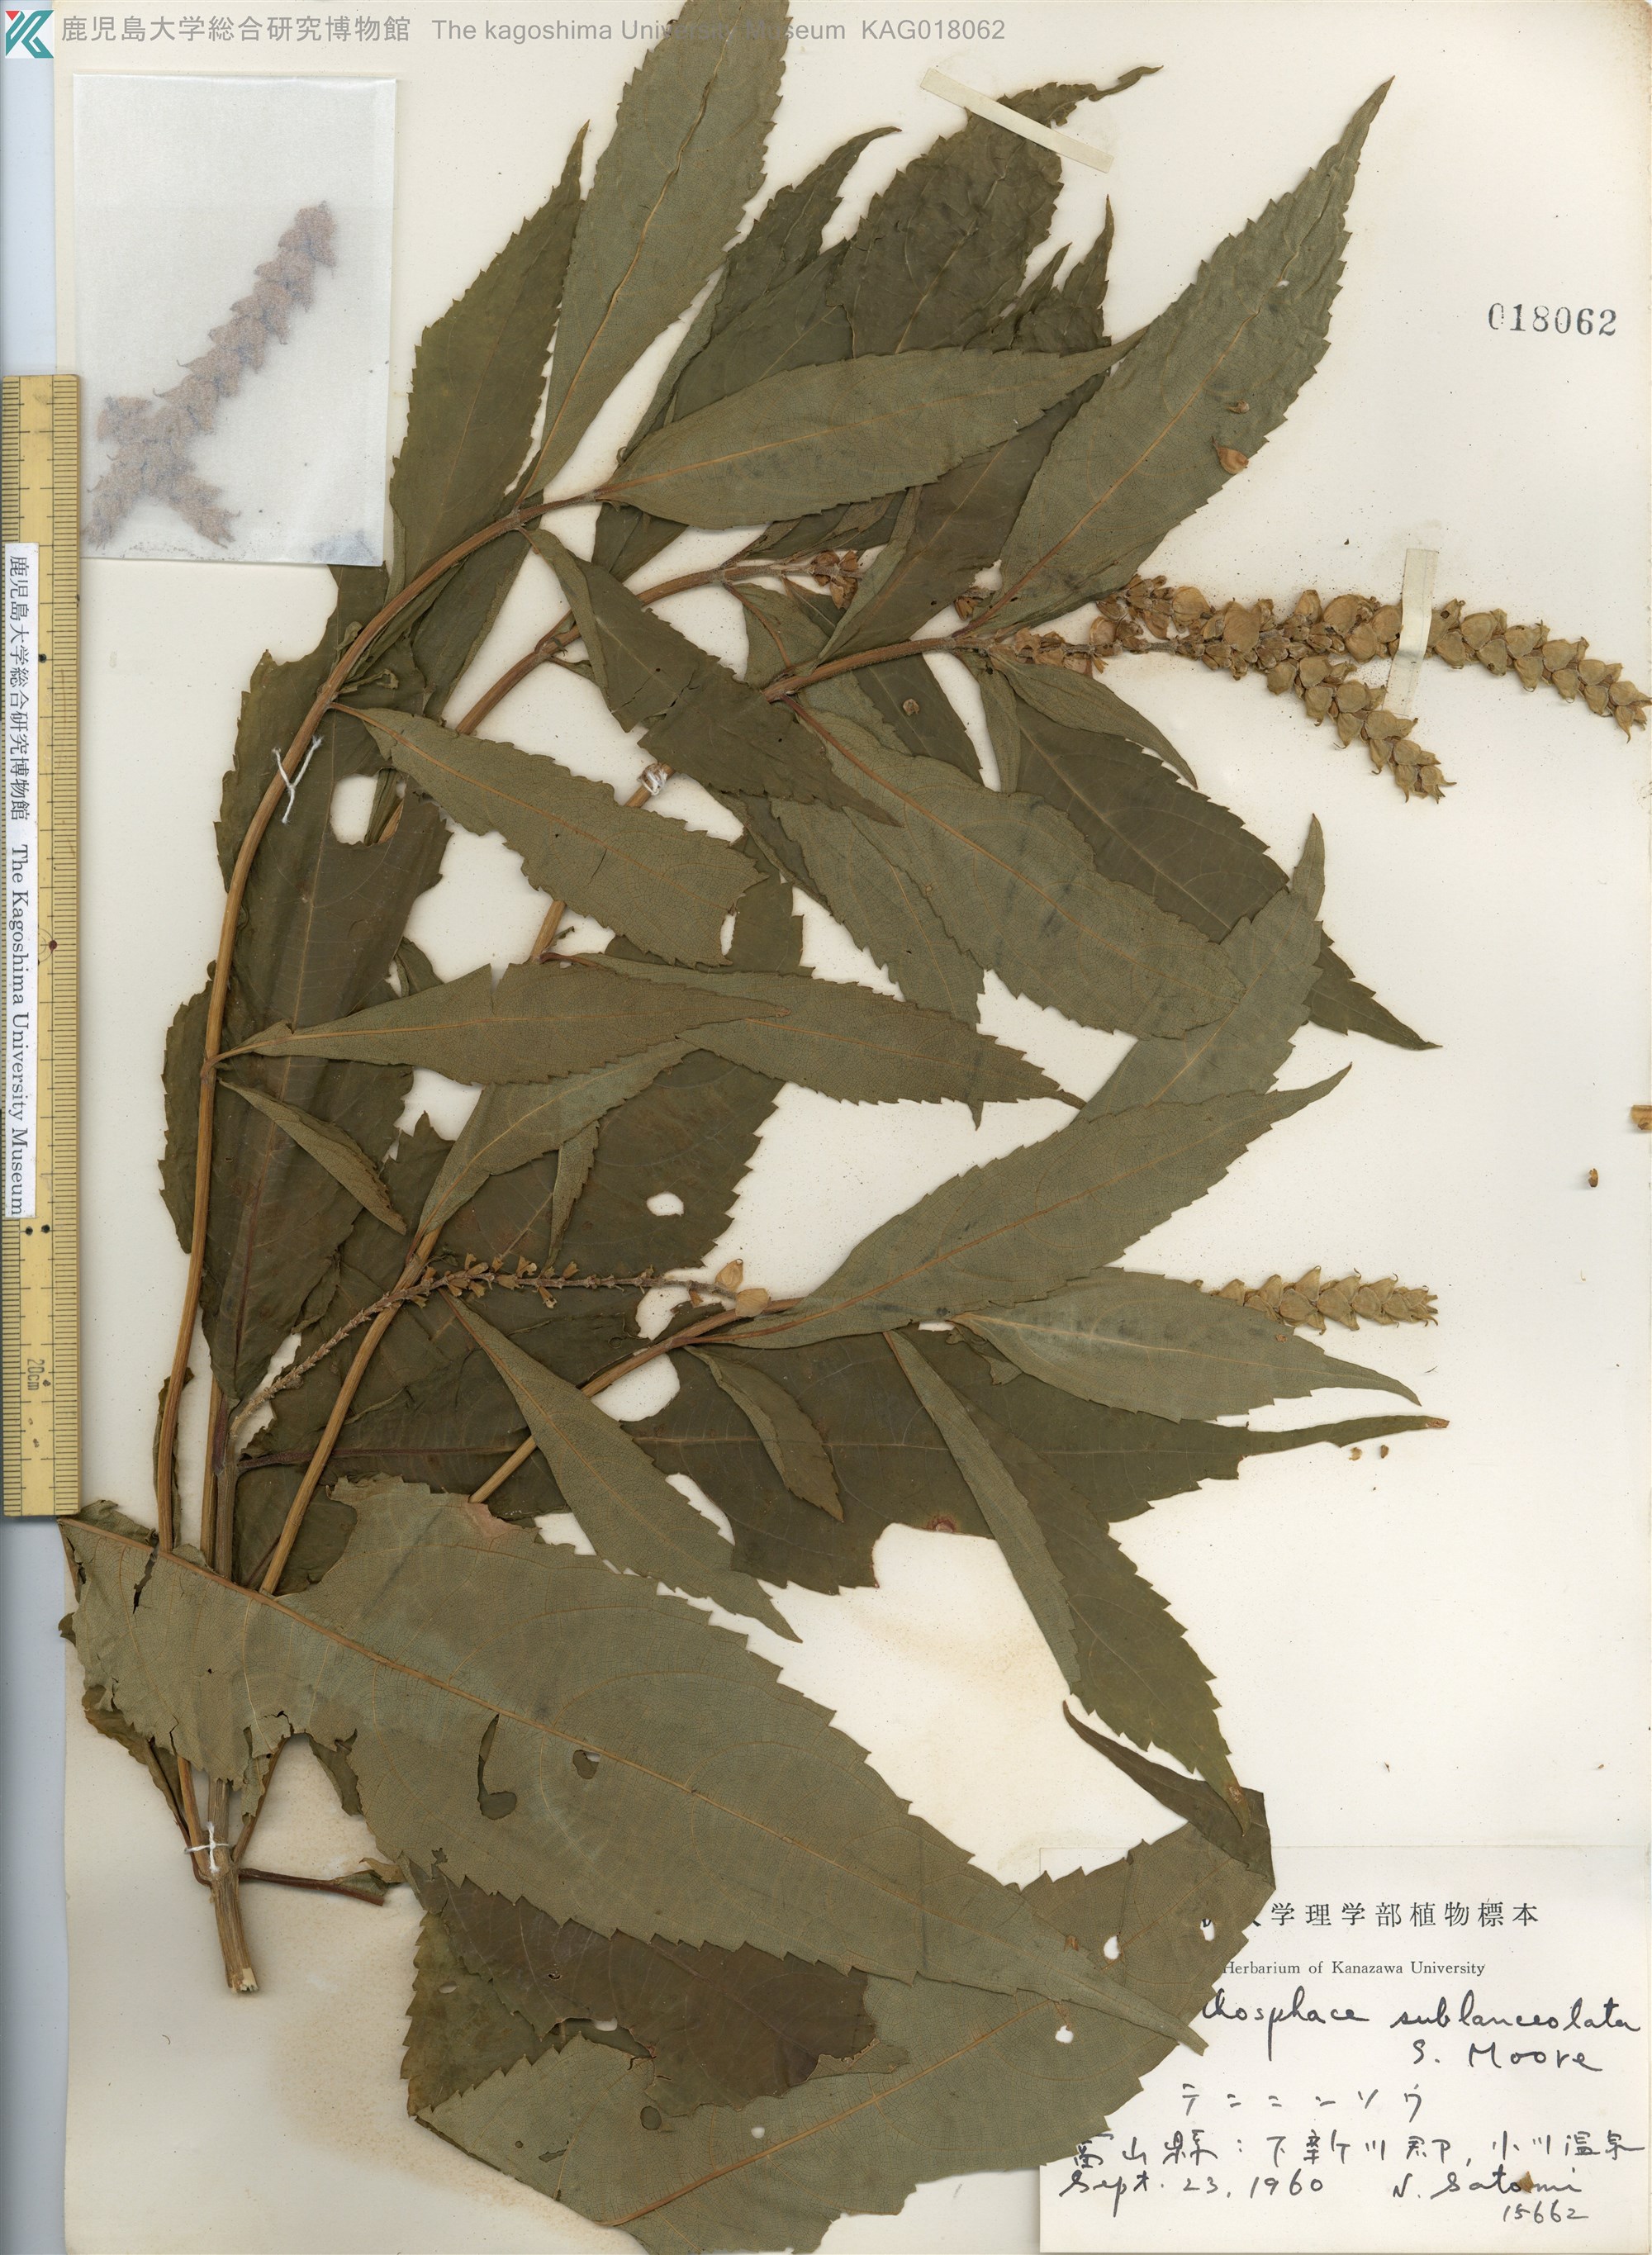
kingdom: Plantae
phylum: Tracheophyta
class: Magnoliopsida
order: Lamiales
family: Lamiaceae
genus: Comanthosphace
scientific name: Comanthosphace japonica
